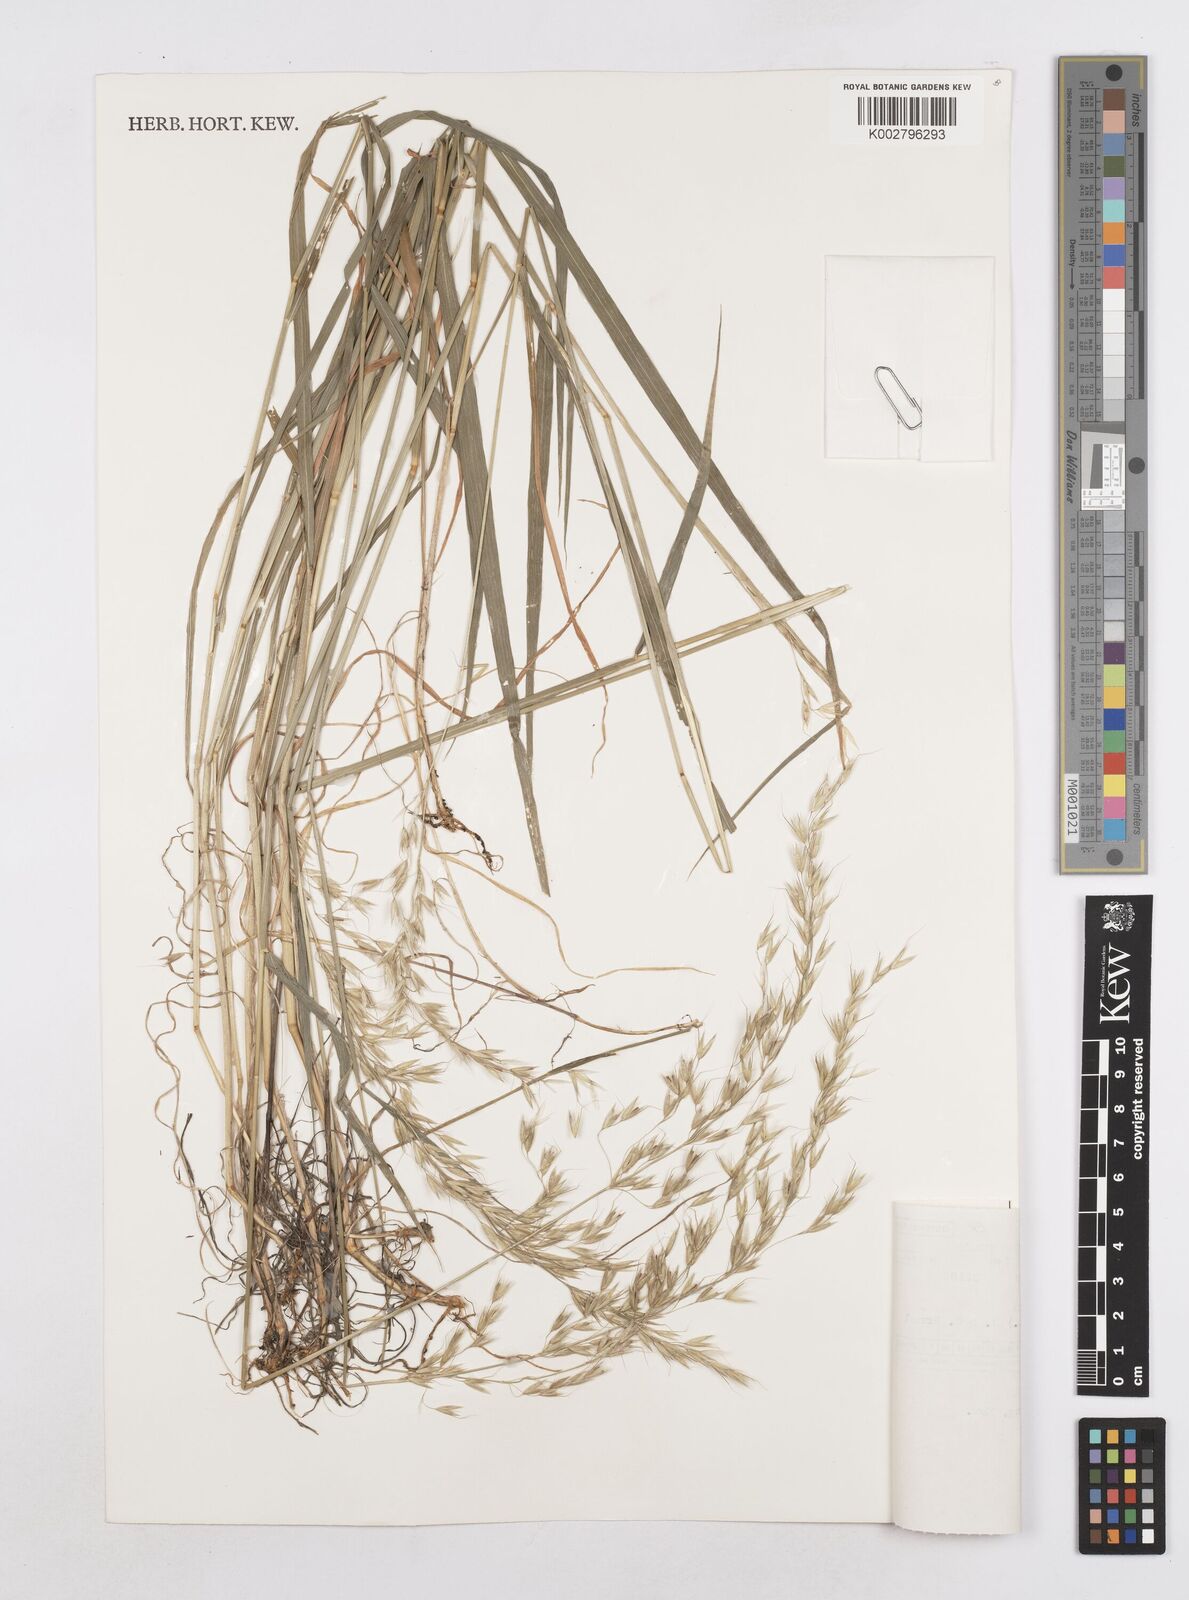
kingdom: Plantae
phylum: Tracheophyta
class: Liliopsida
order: Poales
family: Poaceae
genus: Arrhenatherum
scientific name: Arrhenatherum elatius
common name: Tall oatgrass
